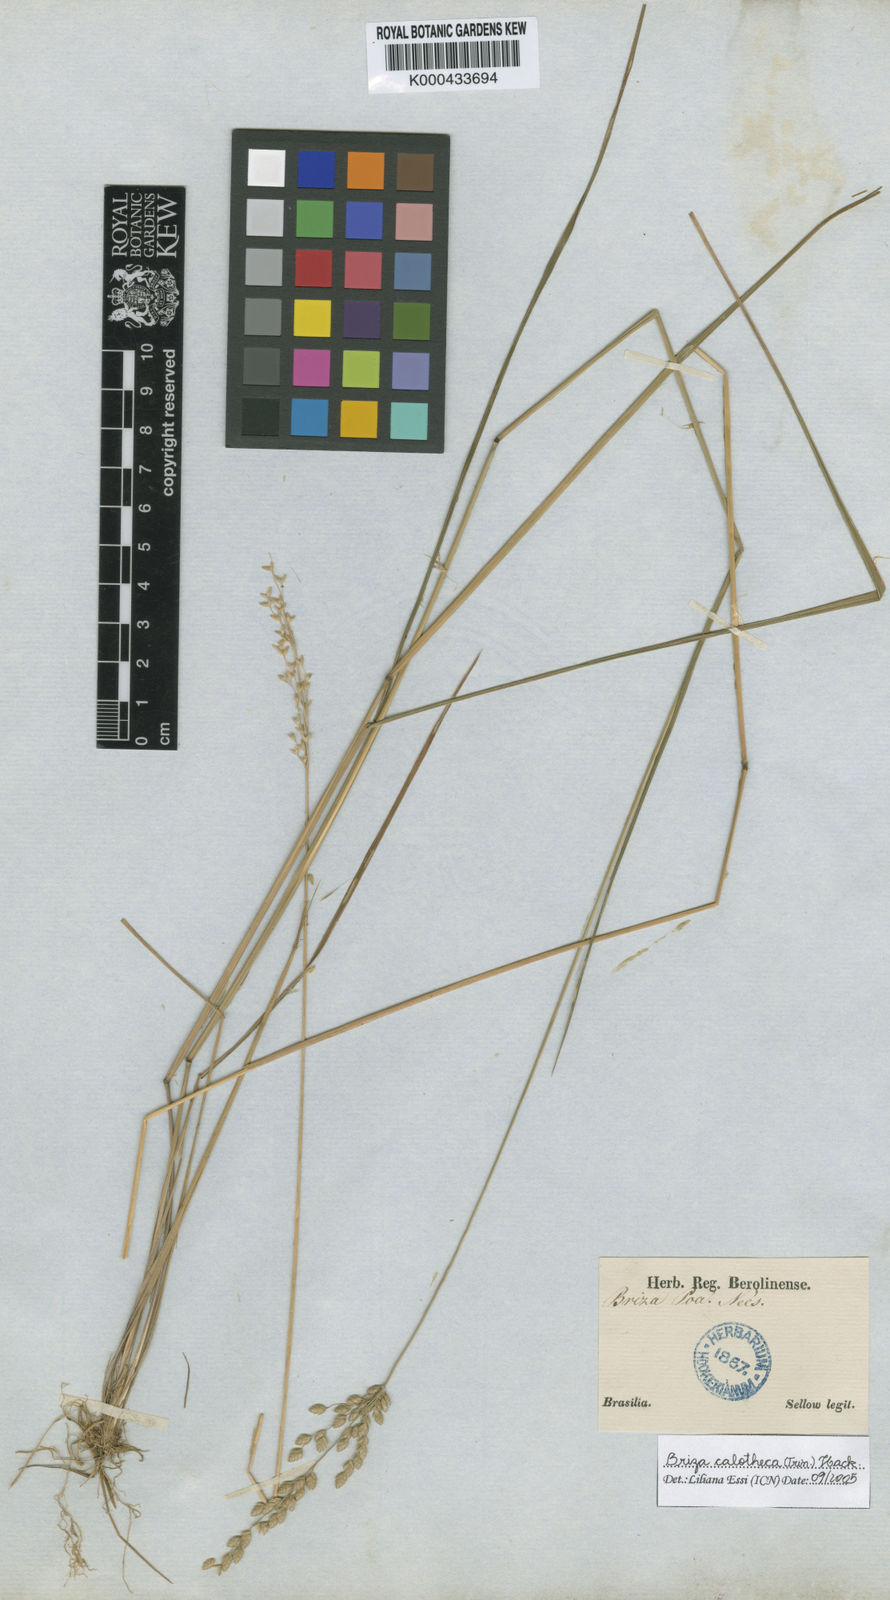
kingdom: Plantae
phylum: Tracheophyta
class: Liliopsida
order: Poales
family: Poaceae
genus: Poidium
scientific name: Poidium calotheca
